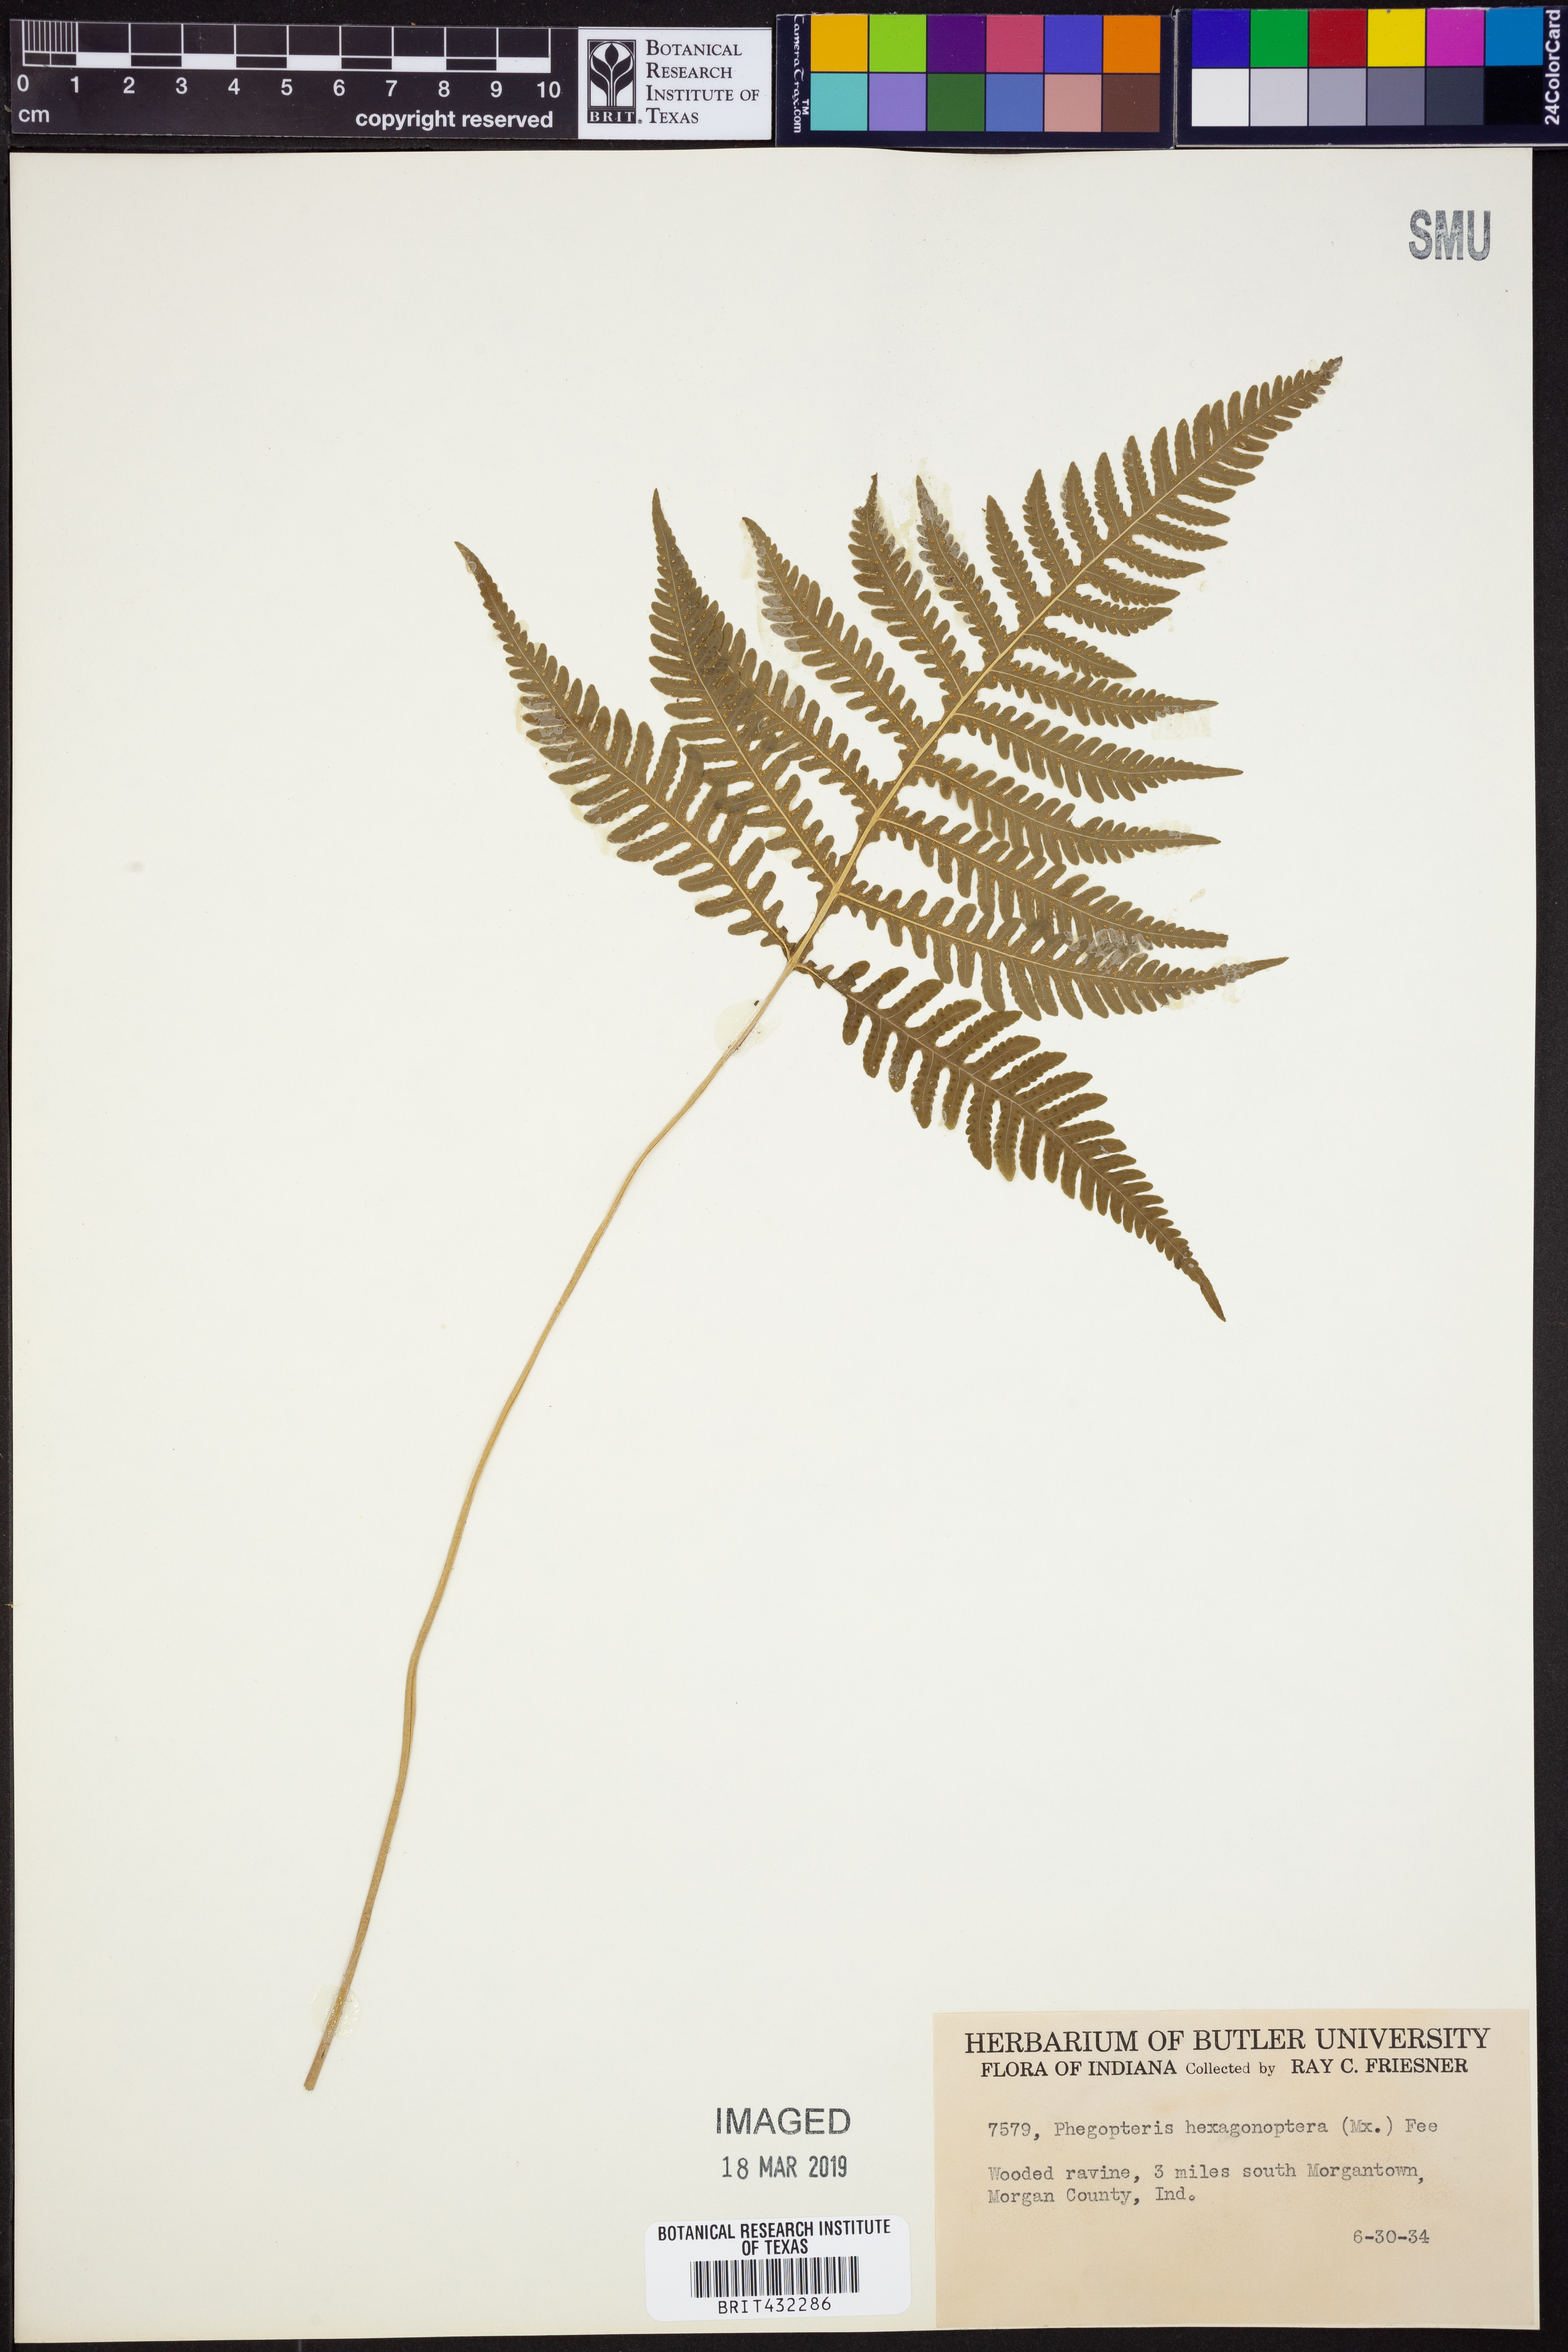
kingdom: Plantae
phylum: Tracheophyta
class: Polypodiopsida
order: Polypodiales
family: Thelypteridaceae
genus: Phegopteris
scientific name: Phegopteris hexagonoptera
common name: Broad beech fern
